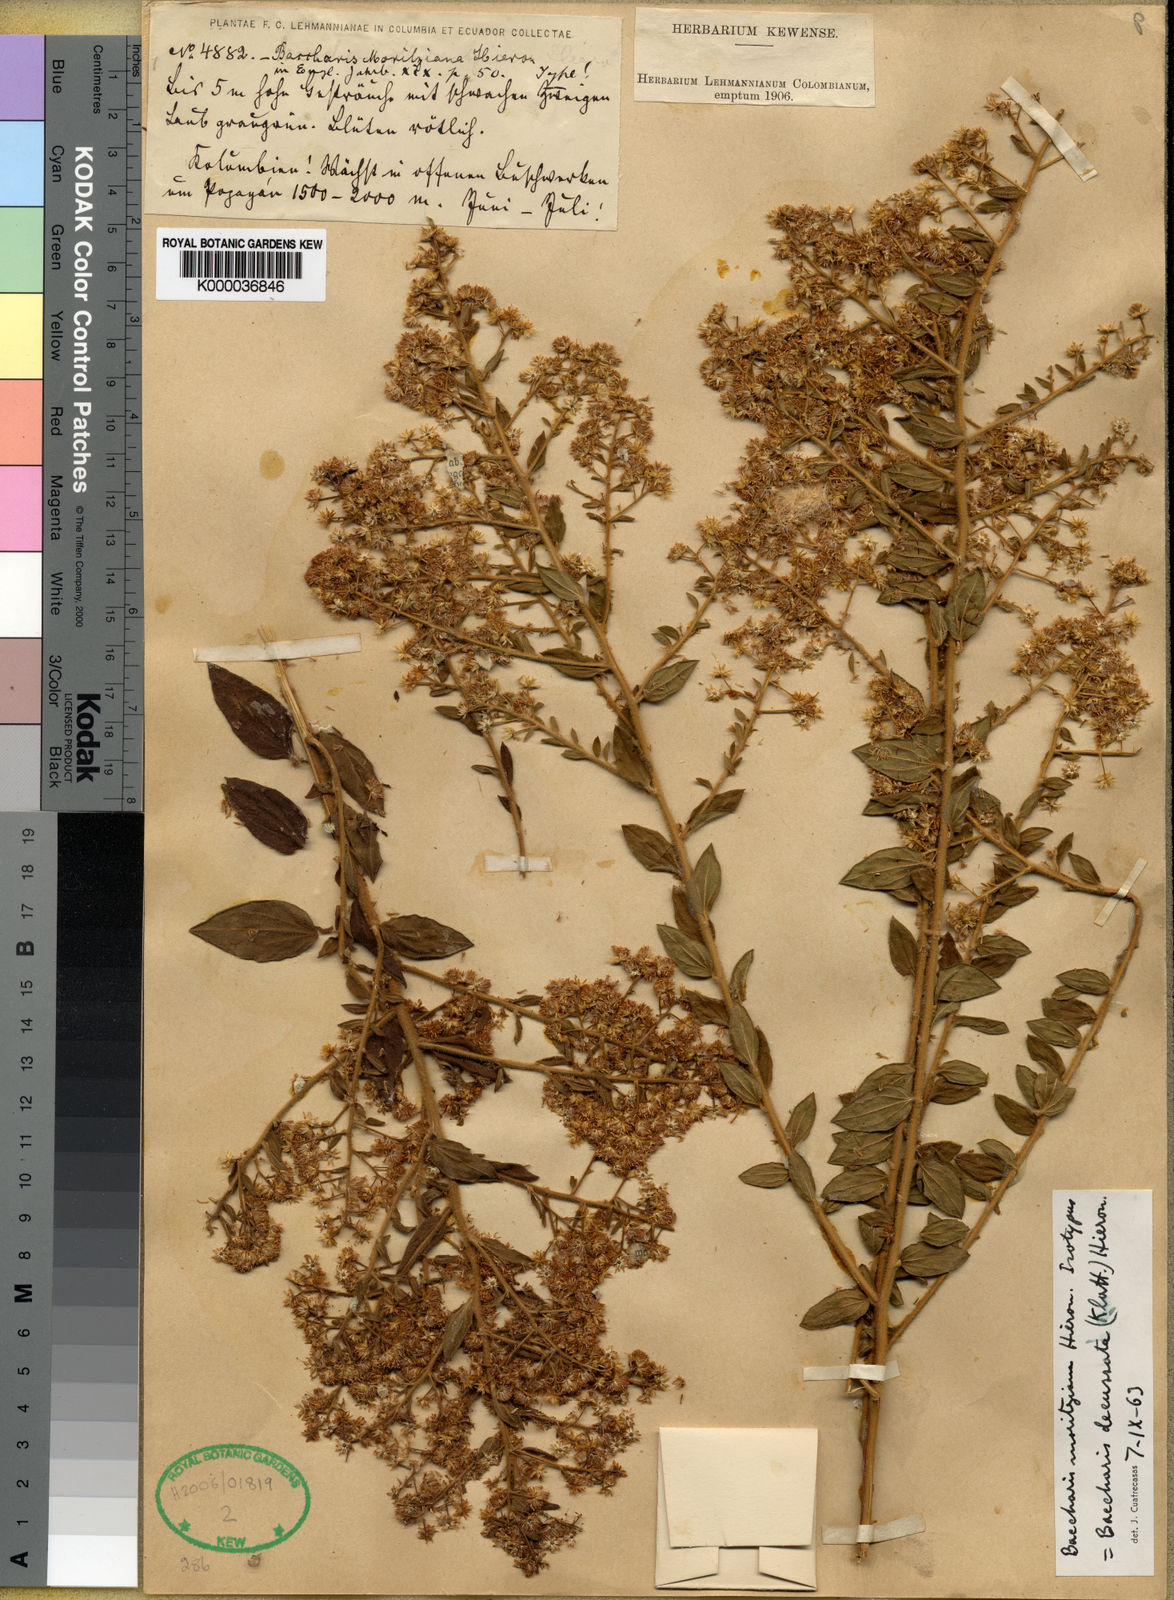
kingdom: Plantae
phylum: Tracheophyta
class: Magnoliopsida
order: Asterales
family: Asteraceae
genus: Baccharis
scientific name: Baccharis decussata
